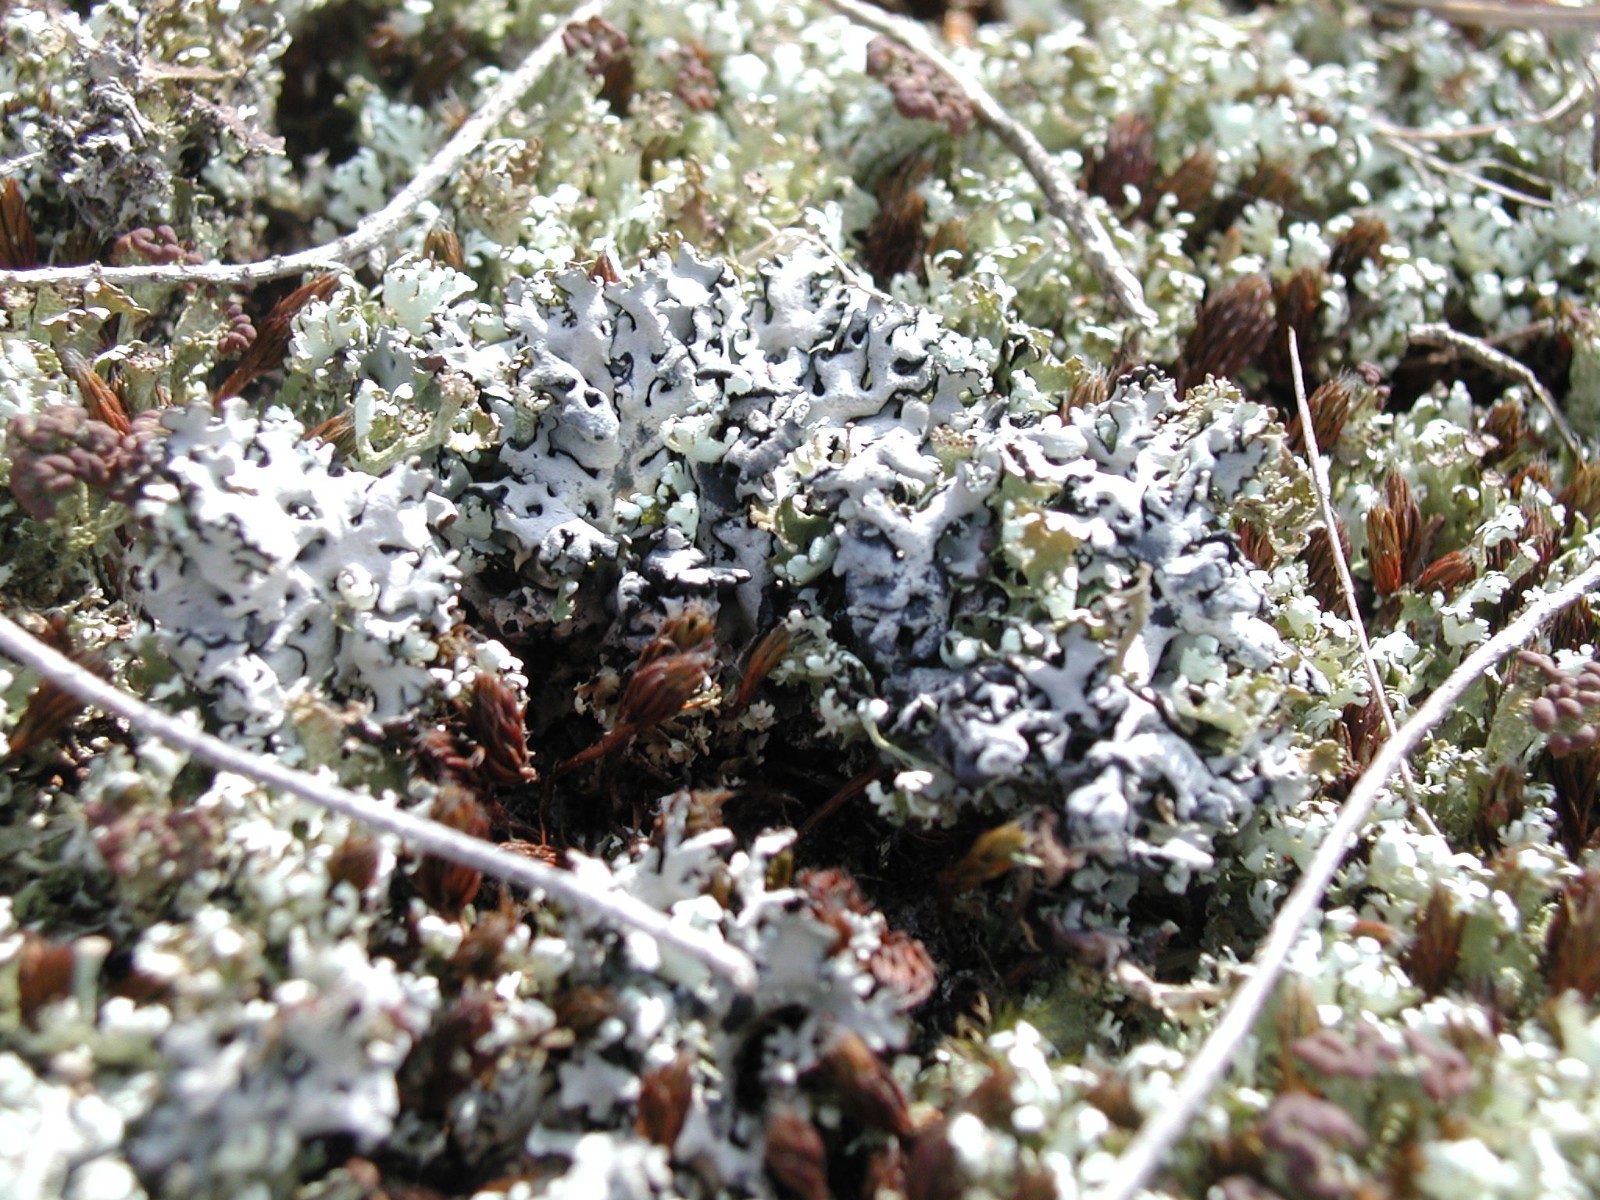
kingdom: Fungi
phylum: Ascomycota
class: Lecanoromycetes
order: Lecanorales
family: Parmeliaceae
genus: Hypogymnia
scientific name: Hypogymnia physodes
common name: almindelig kvistlav
